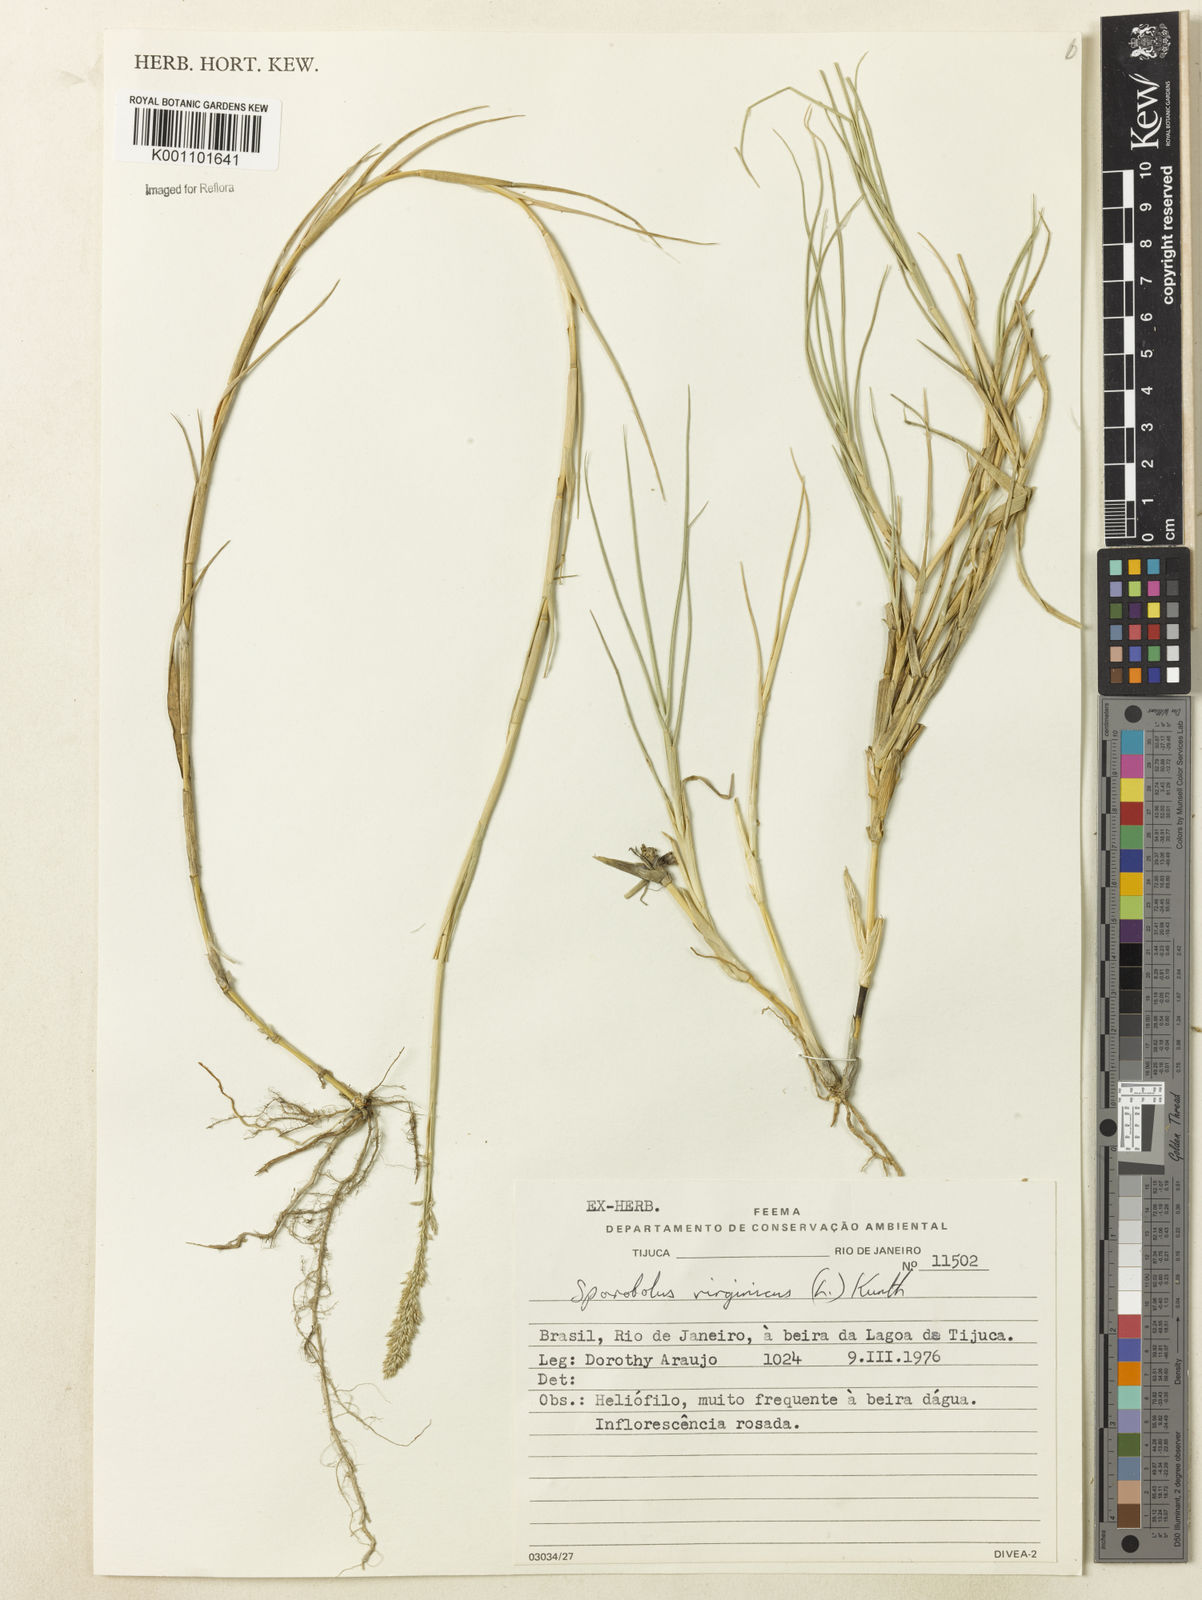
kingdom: Plantae
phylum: Tracheophyta
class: Liliopsida
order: Poales
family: Poaceae
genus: Sporobolus
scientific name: Sporobolus virginicus
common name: Beach dropseed
